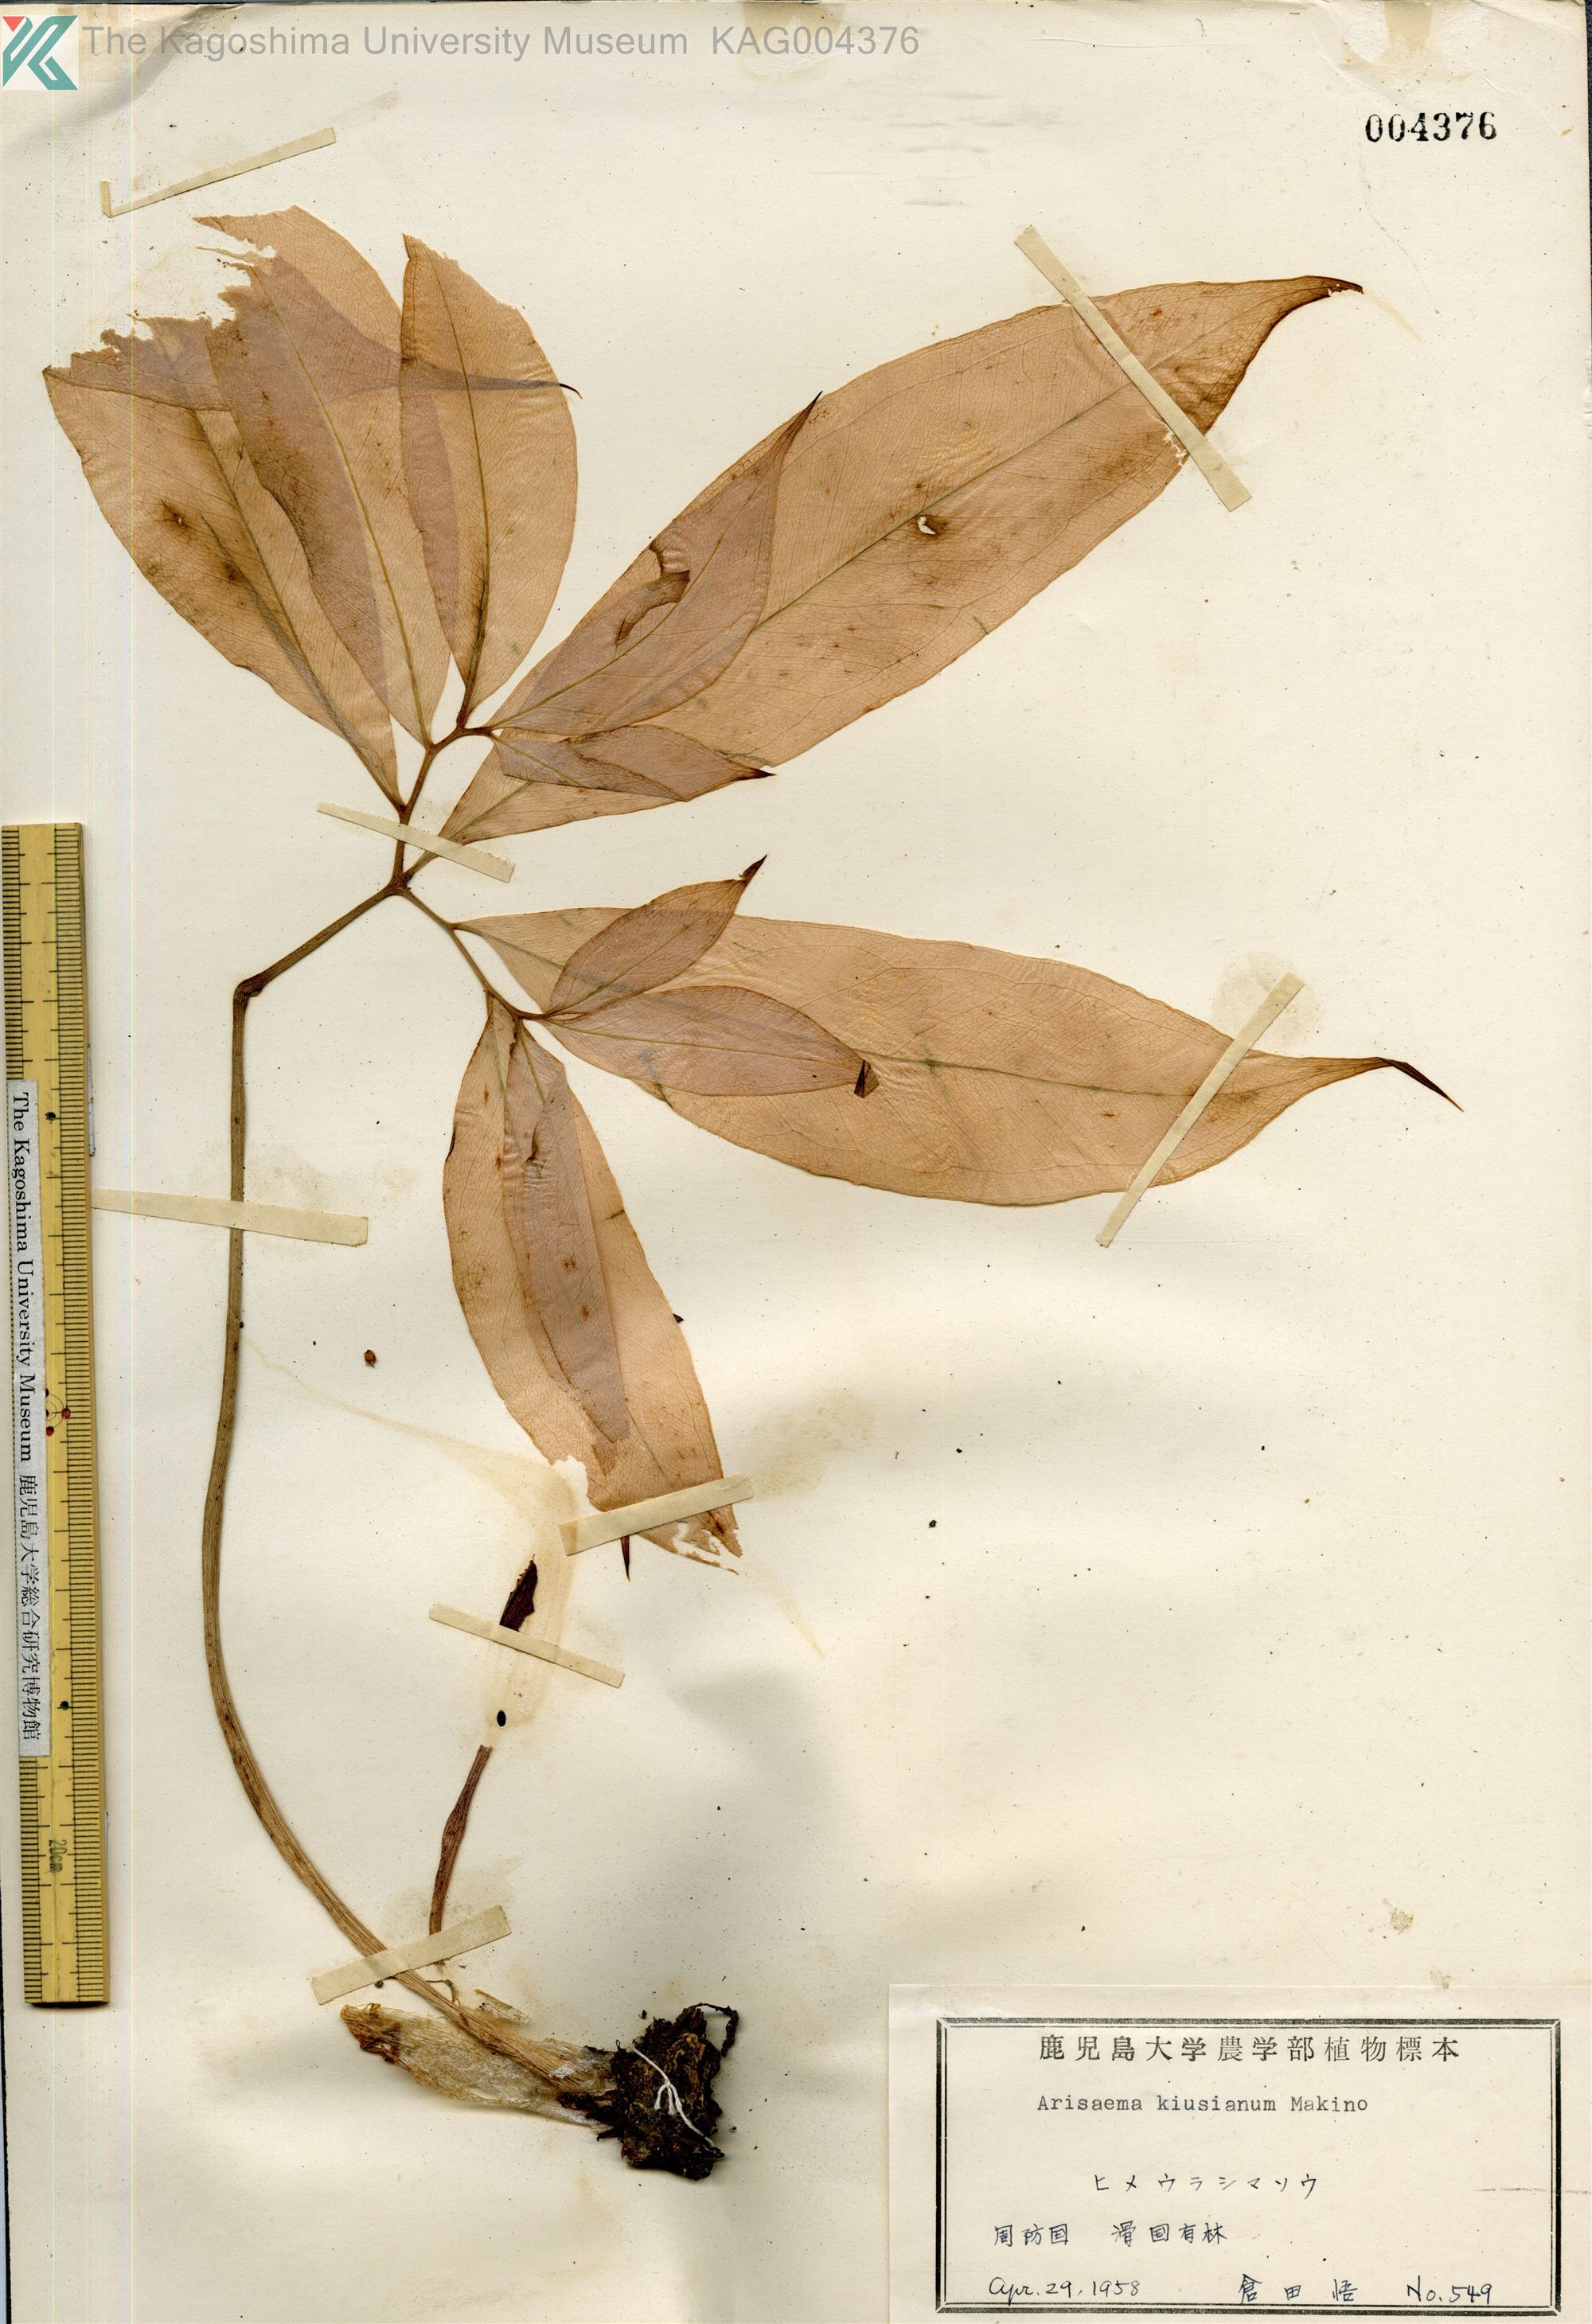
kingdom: Plantae
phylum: Tracheophyta
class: Liliopsida
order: Alismatales
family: Araceae
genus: Arisaema
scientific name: Arisaema kiushianum
